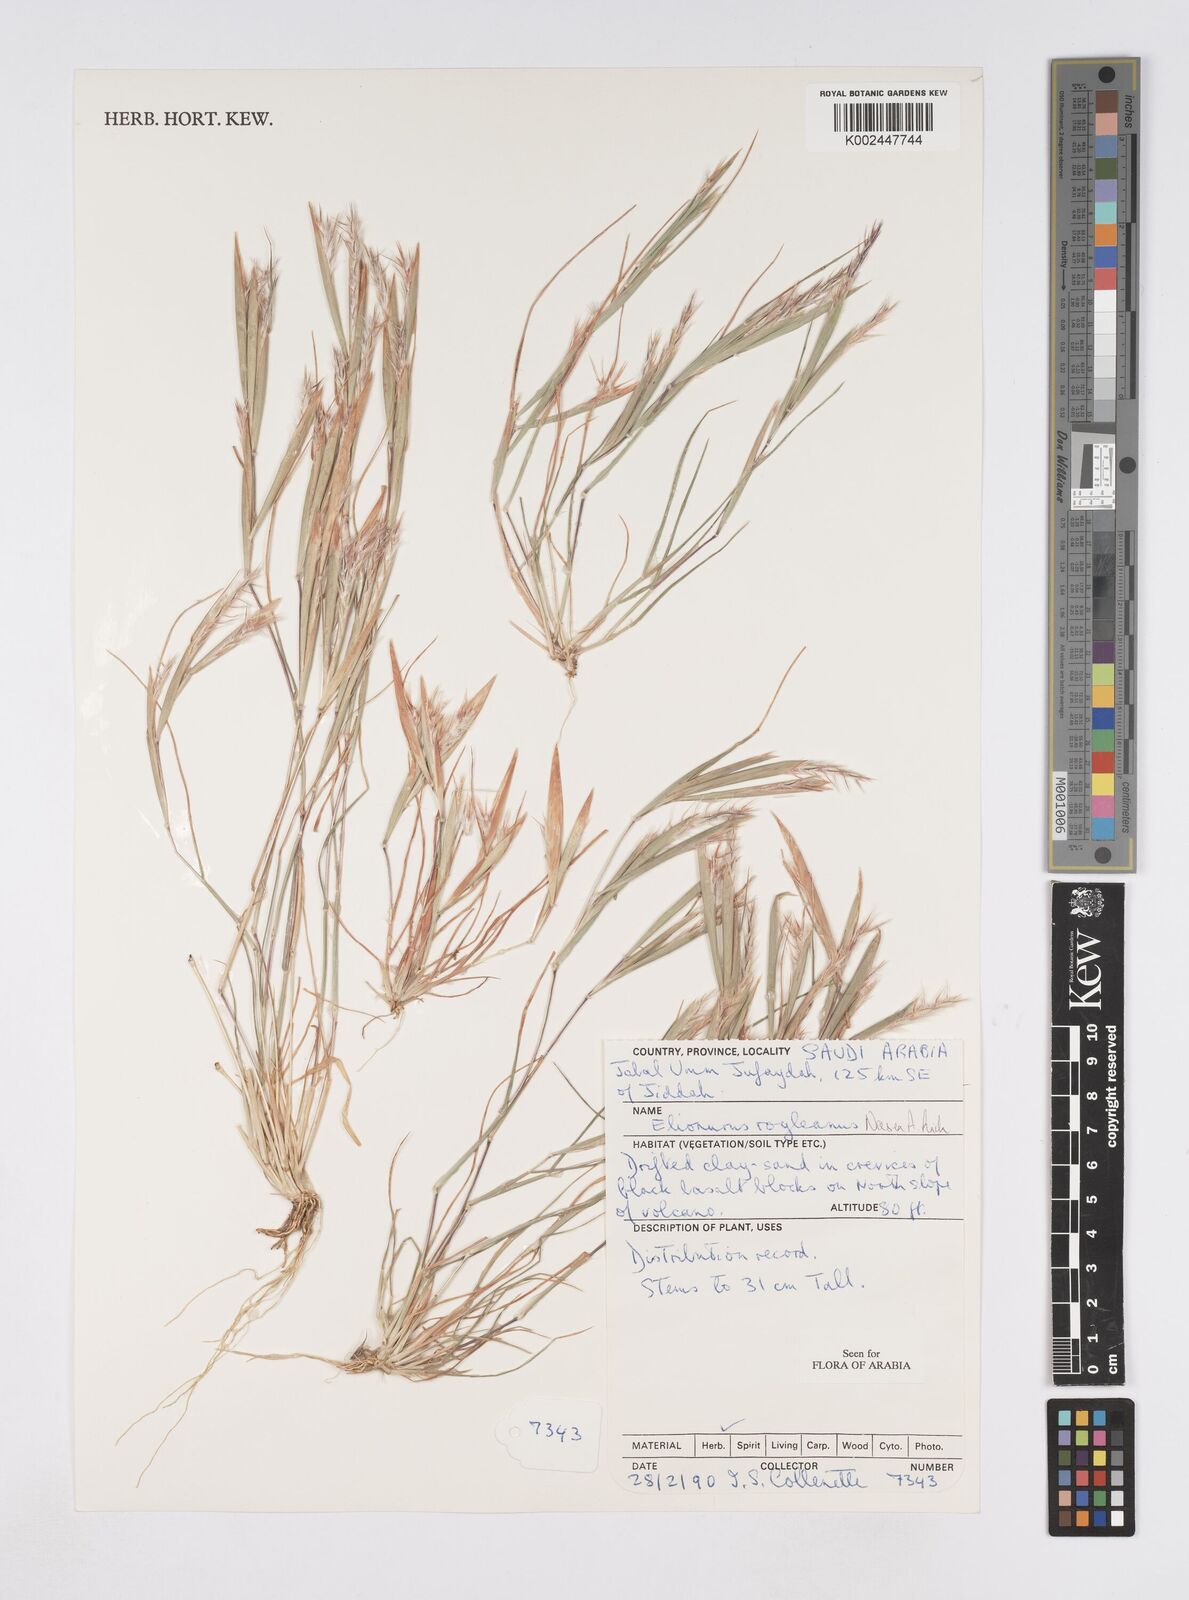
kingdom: Plantae
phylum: Tracheophyta
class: Liliopsida
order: Poales
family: Poaceae
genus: Elionurus
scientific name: Elionurus royleanus
